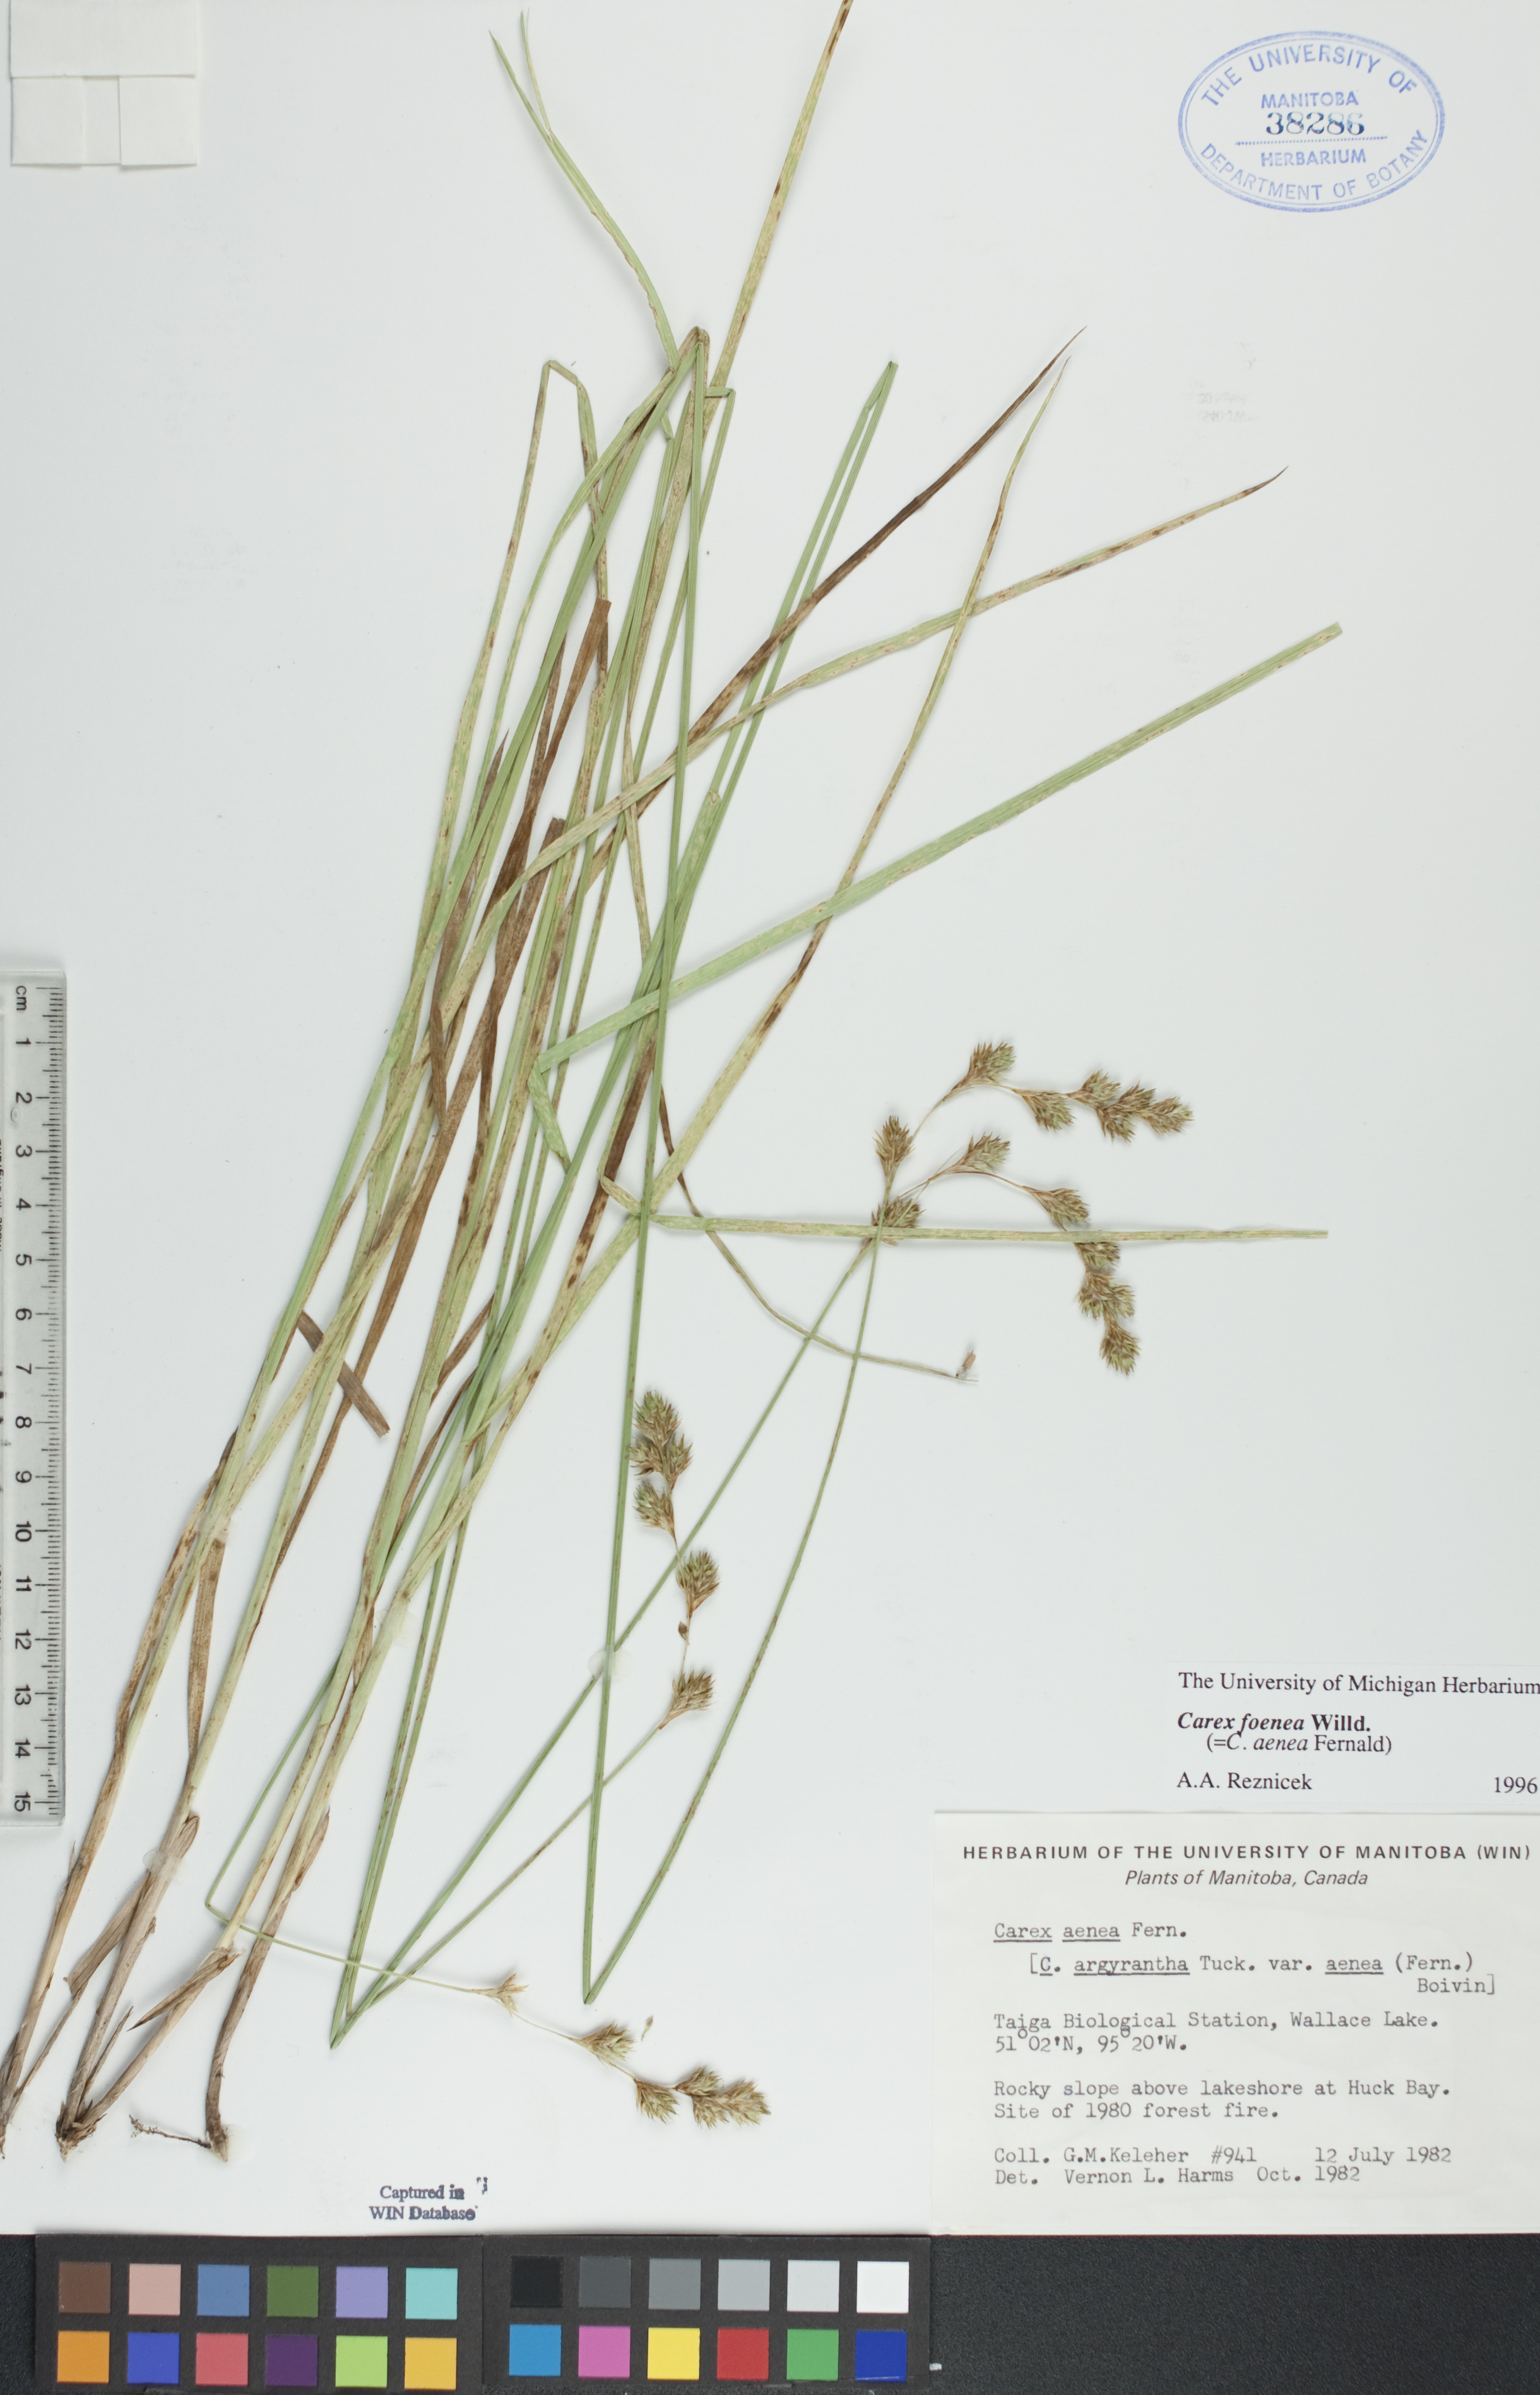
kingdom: Plantae
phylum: Tracheophyta
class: Liliopsida
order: Poales
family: Cyperaceae
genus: Carex
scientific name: Carex foenea
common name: Bronze sedge
